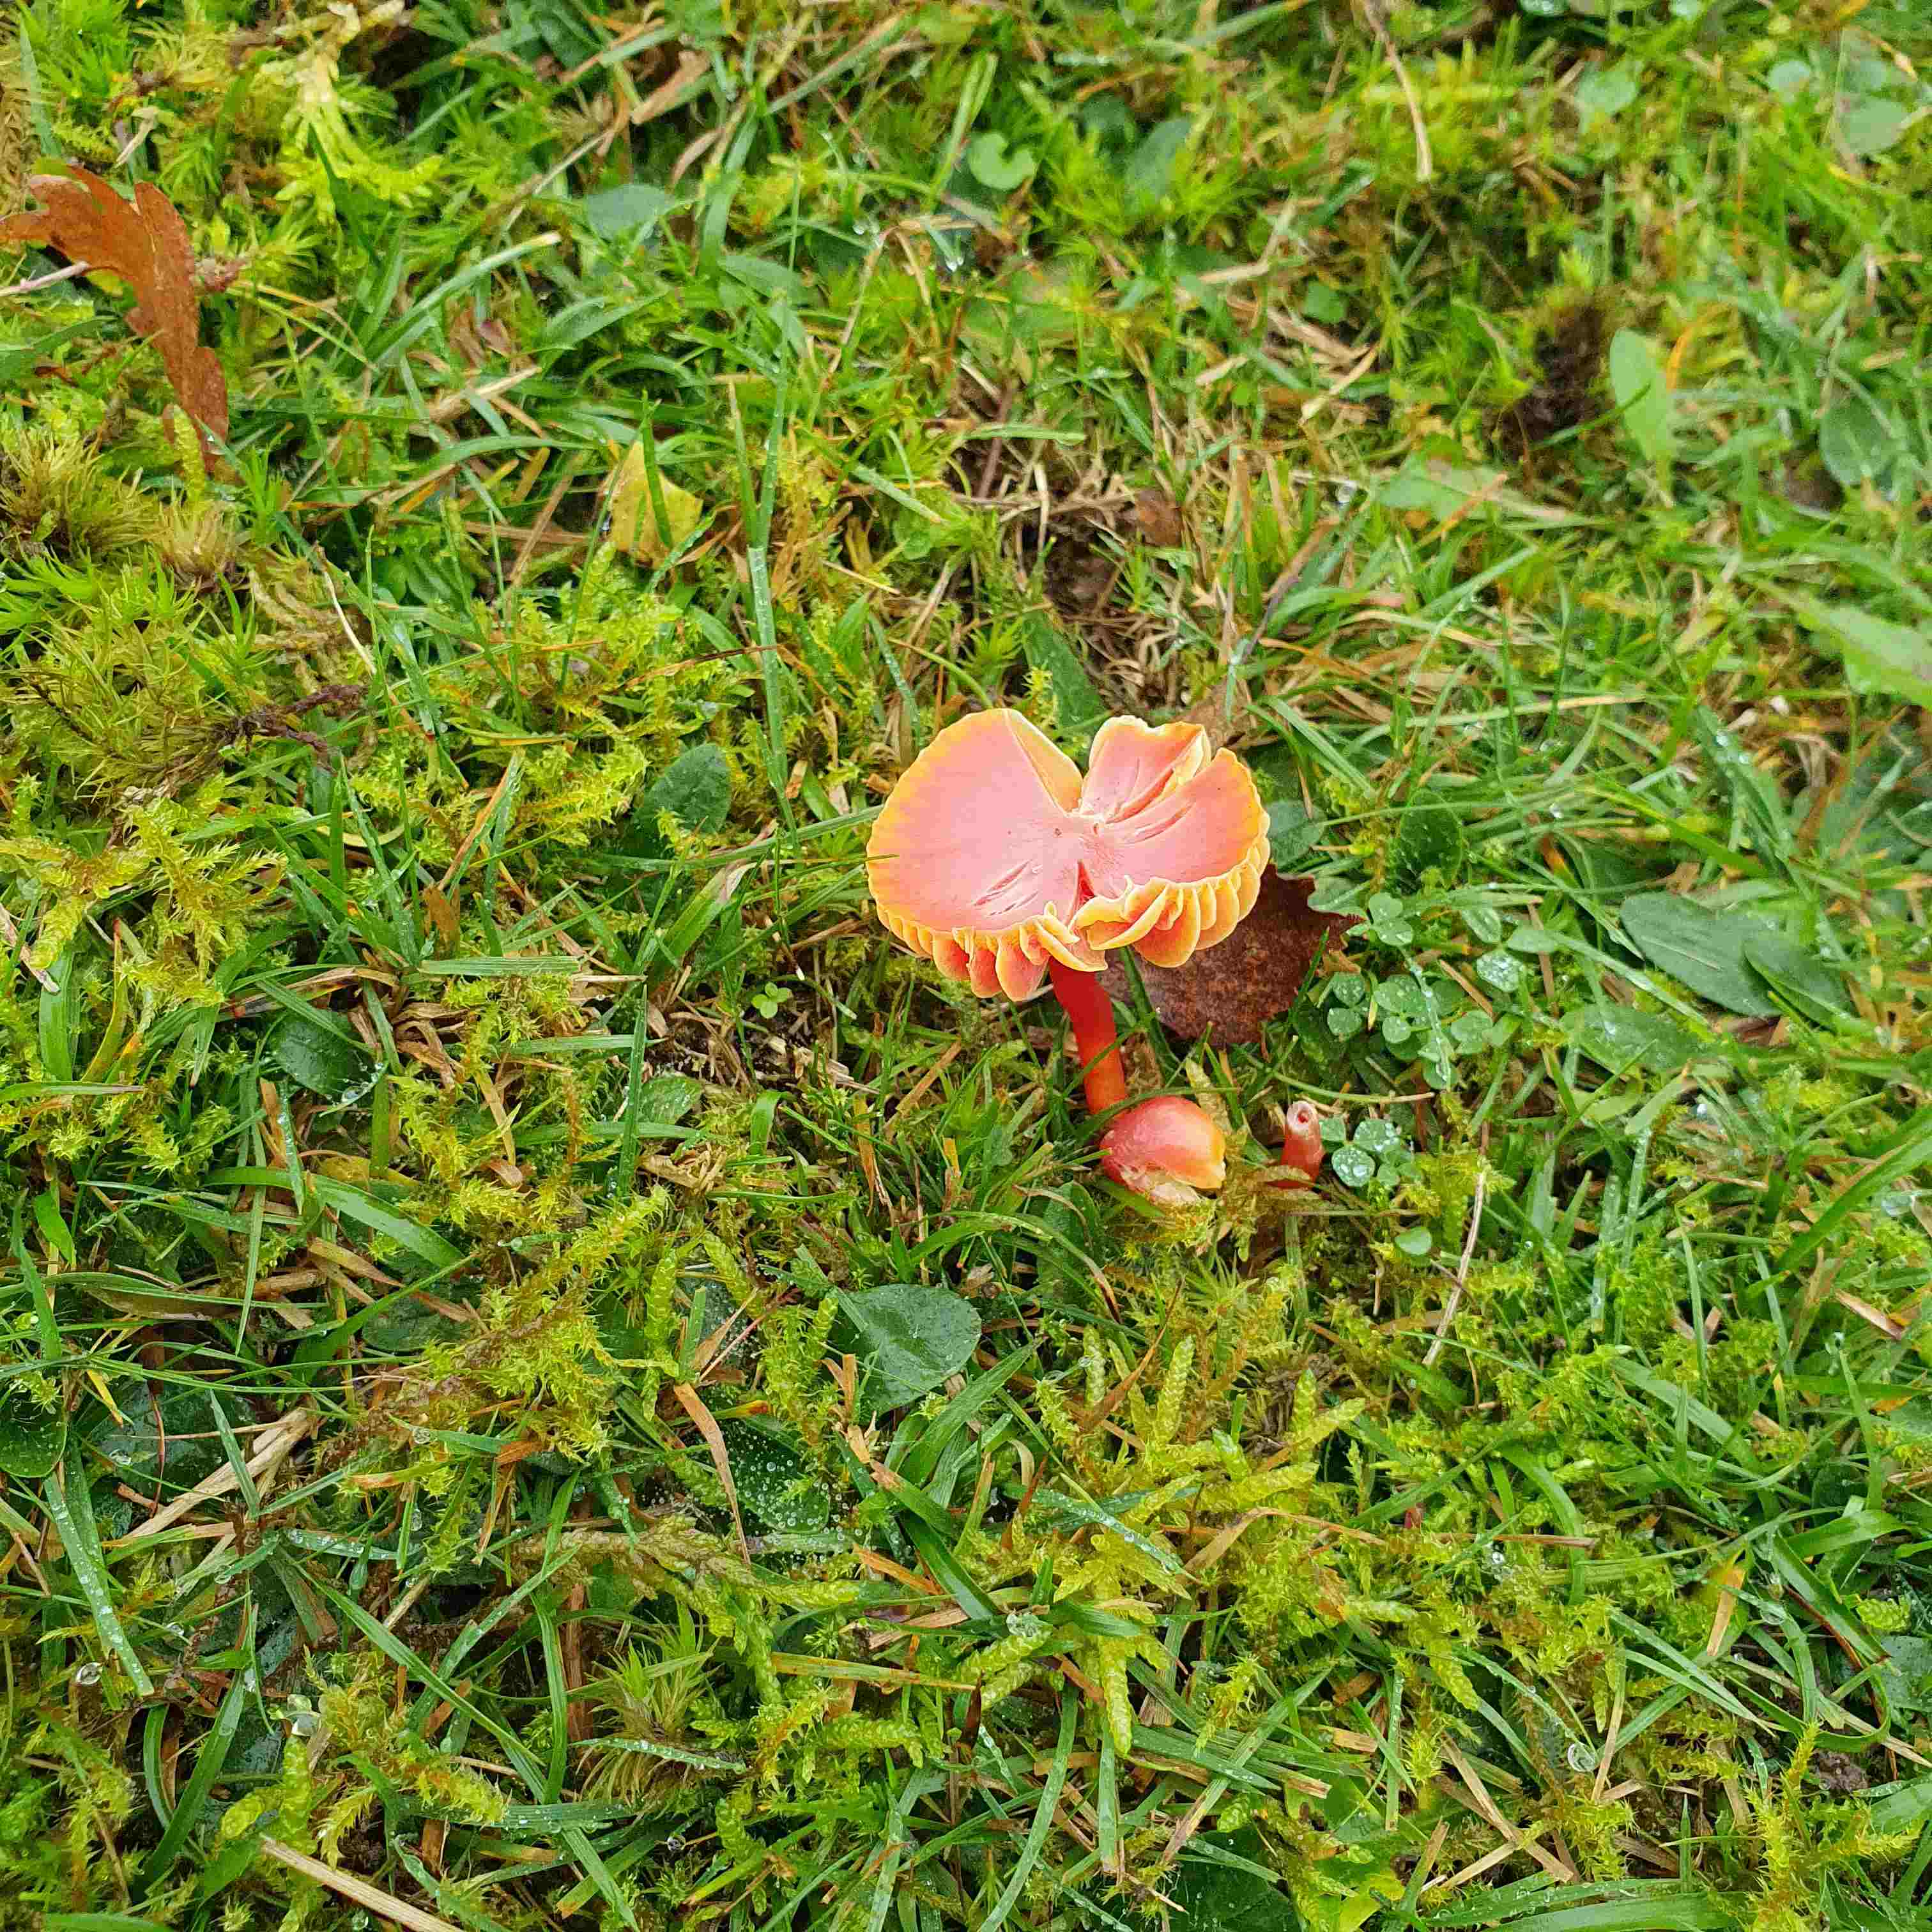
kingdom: Fungi
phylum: Basidiomycota
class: Agaricomycetes
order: Agaricales
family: Hygrophoraceae
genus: Hygrocybe
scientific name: Hygrocybe coccinea
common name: cinnober-vokshat
